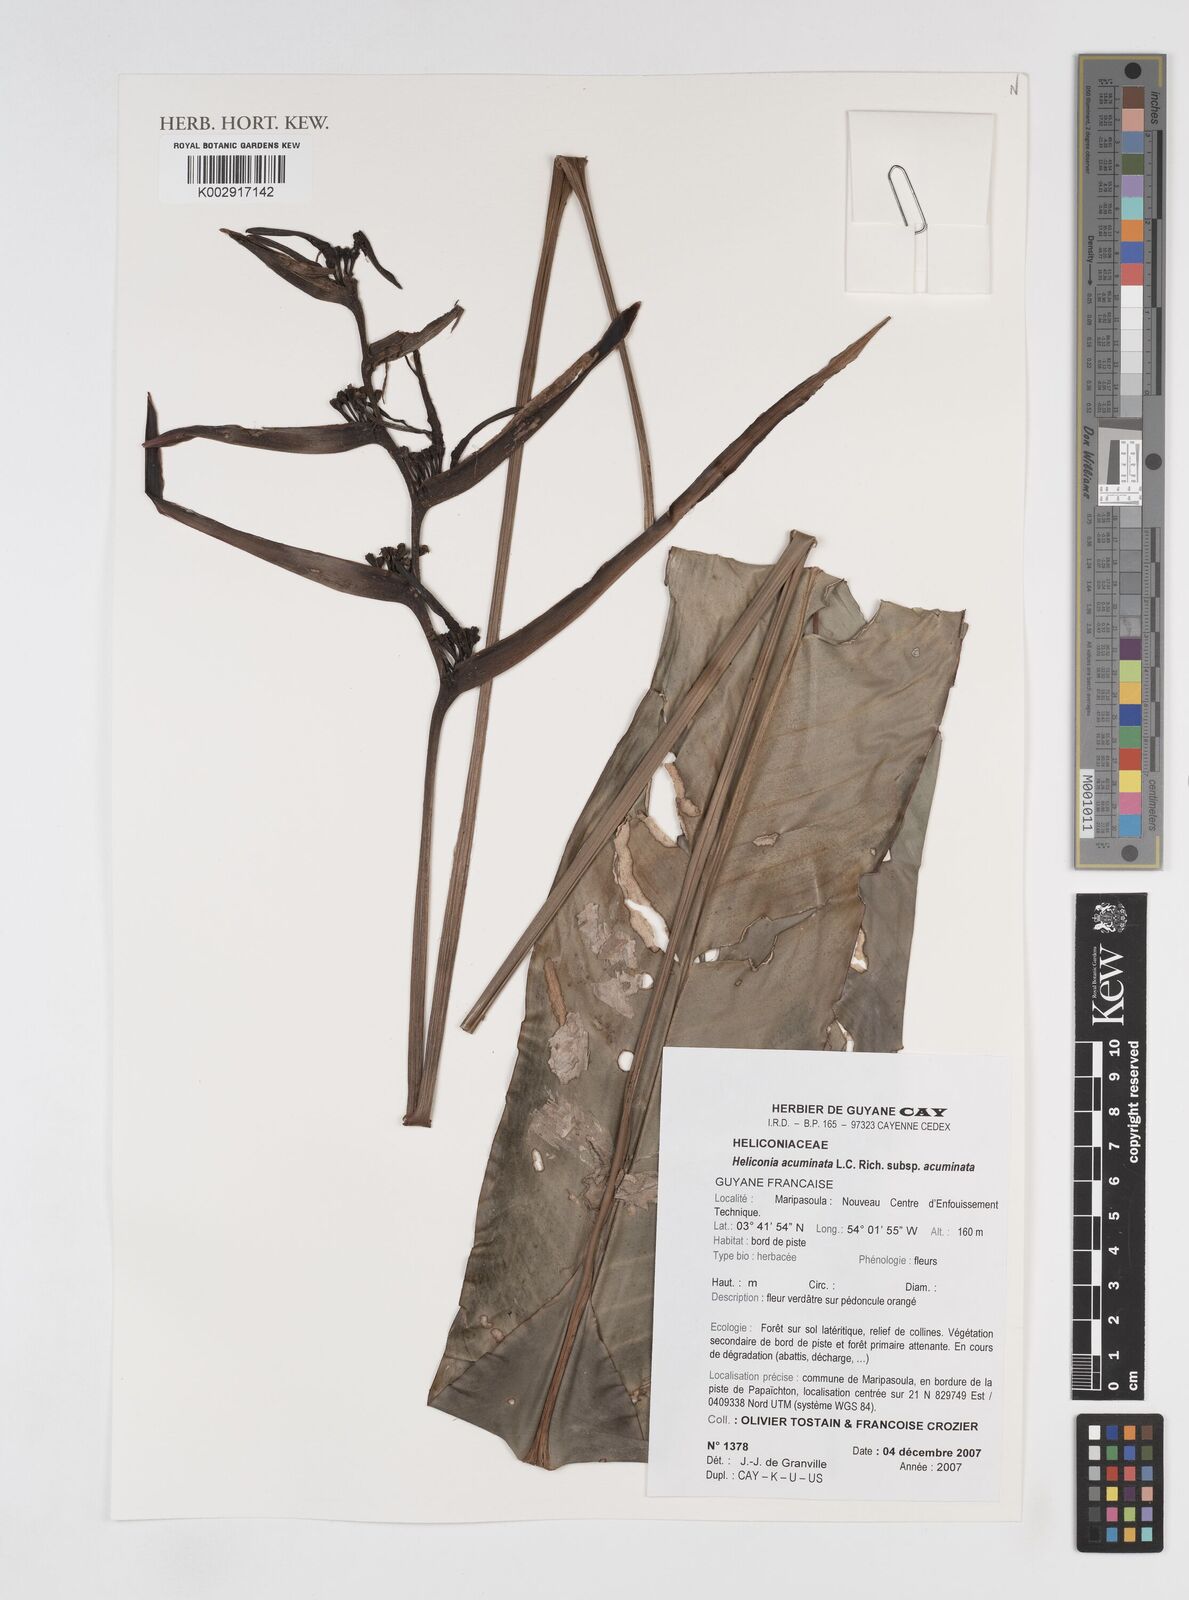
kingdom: Plantae
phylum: Tracheophyta
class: Liliopsida
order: Zingiberales
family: Heliconiaceae
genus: Heliconia
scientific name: Heliconia acuminata
